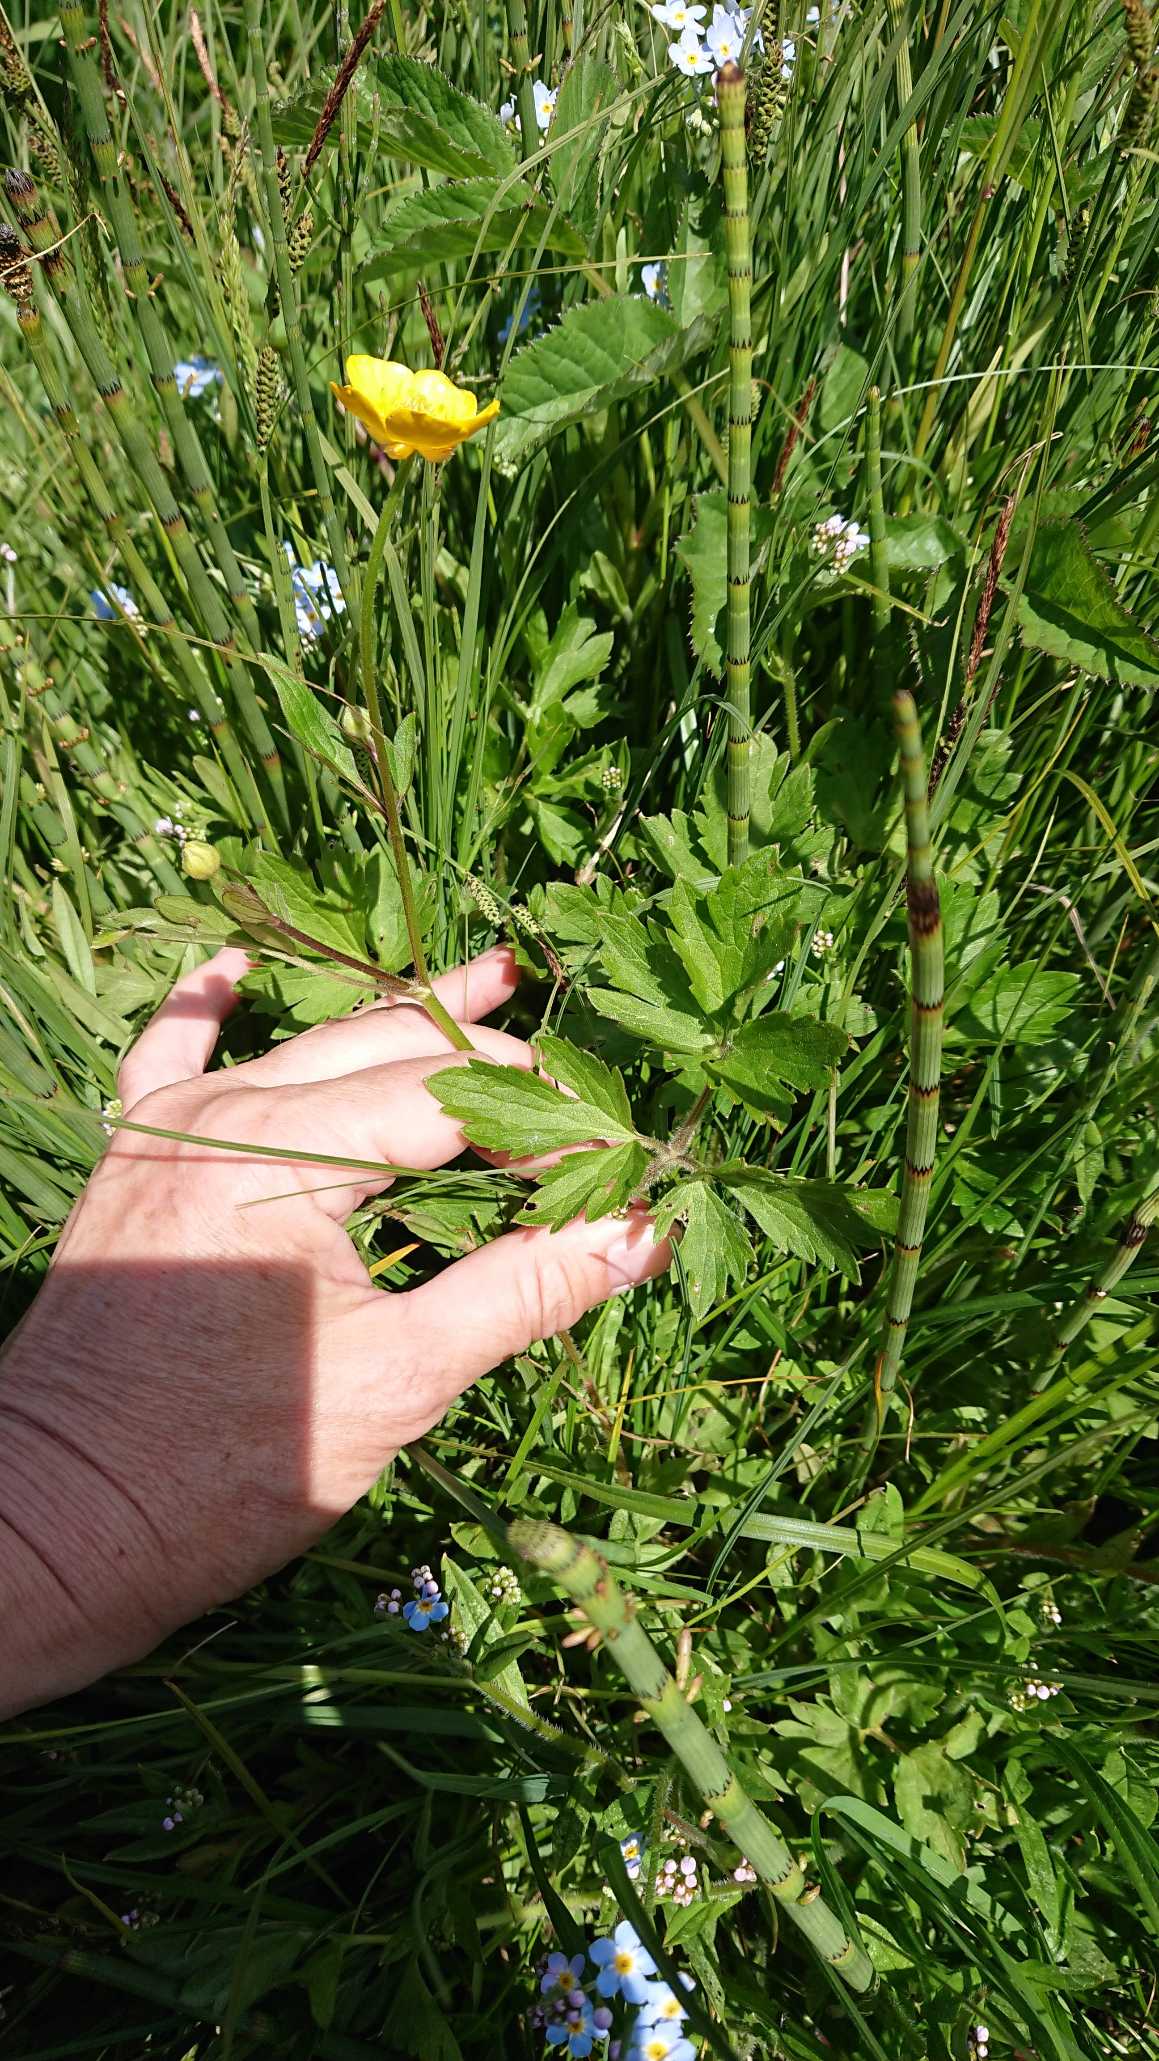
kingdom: Plantae
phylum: Tracheophyta
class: Magnoliopsida
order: Ranunculales
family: Ranunculaceae
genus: Ranunculus
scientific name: Ranunculus repens
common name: Lav ranunkel
